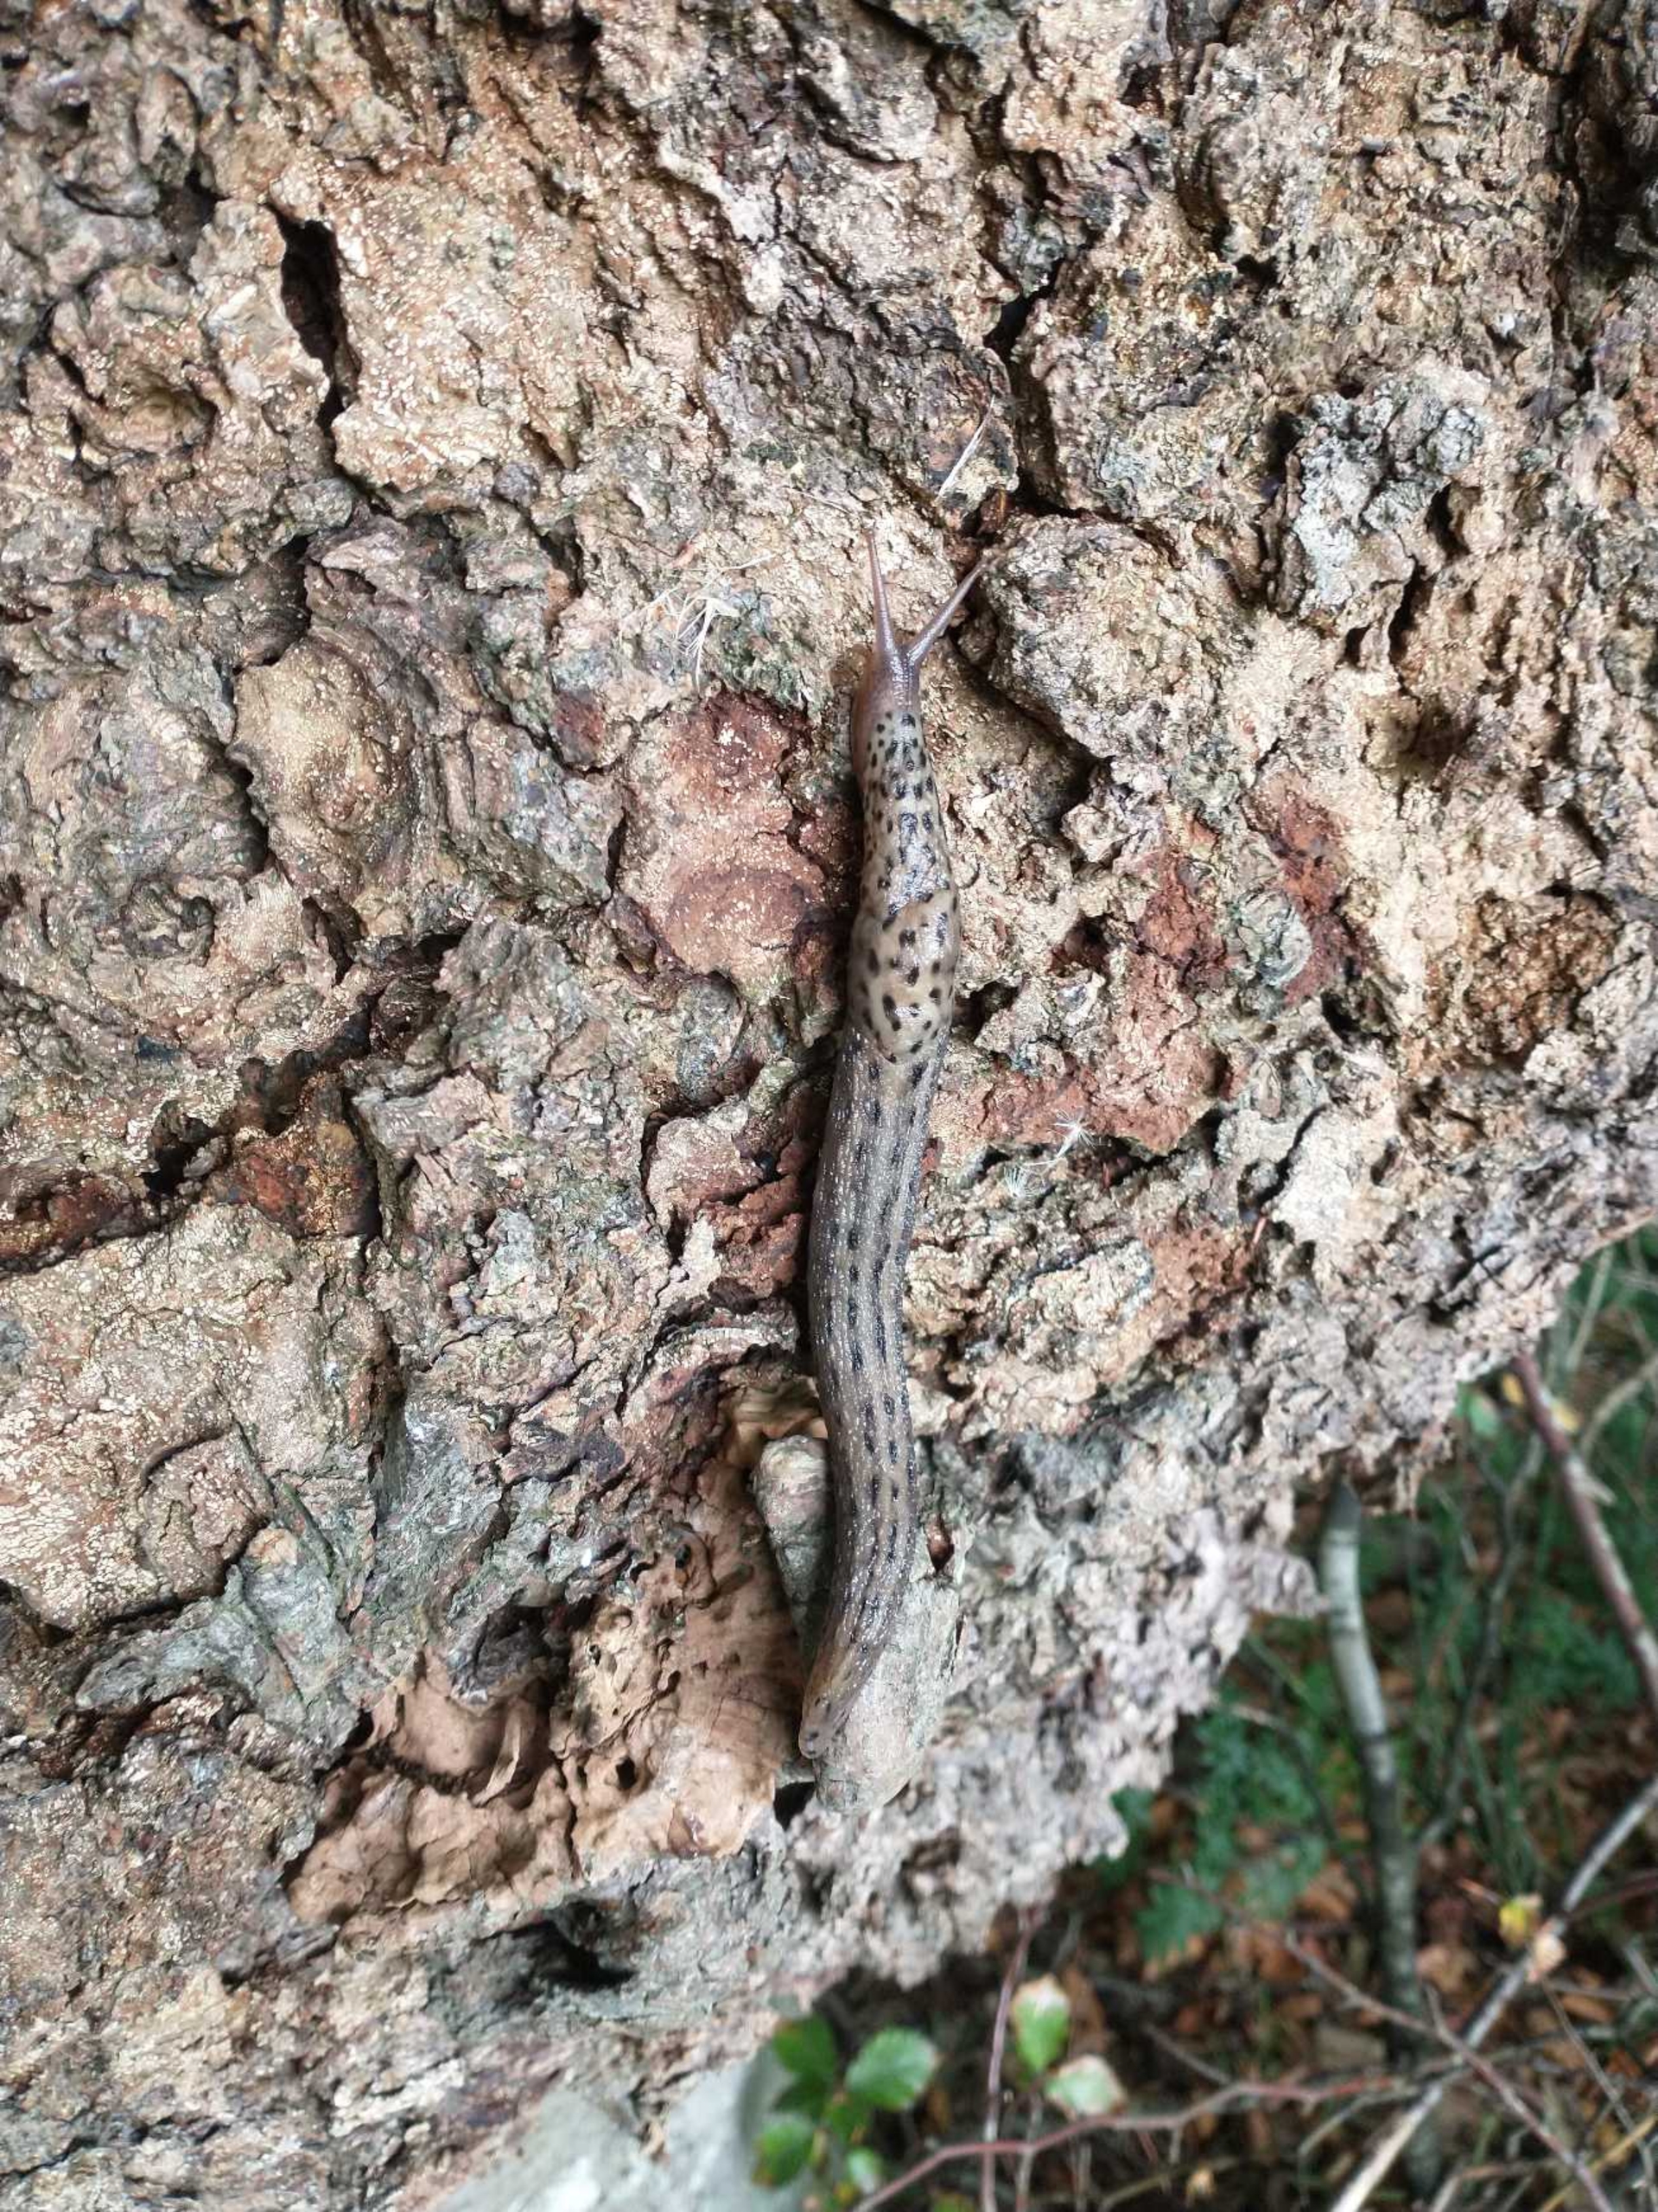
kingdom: Animalia
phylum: Mollusca
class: Gastropoda
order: Stylommatophora
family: Limacidae
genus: Limax
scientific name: Limax maximus
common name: Pantersnegl
